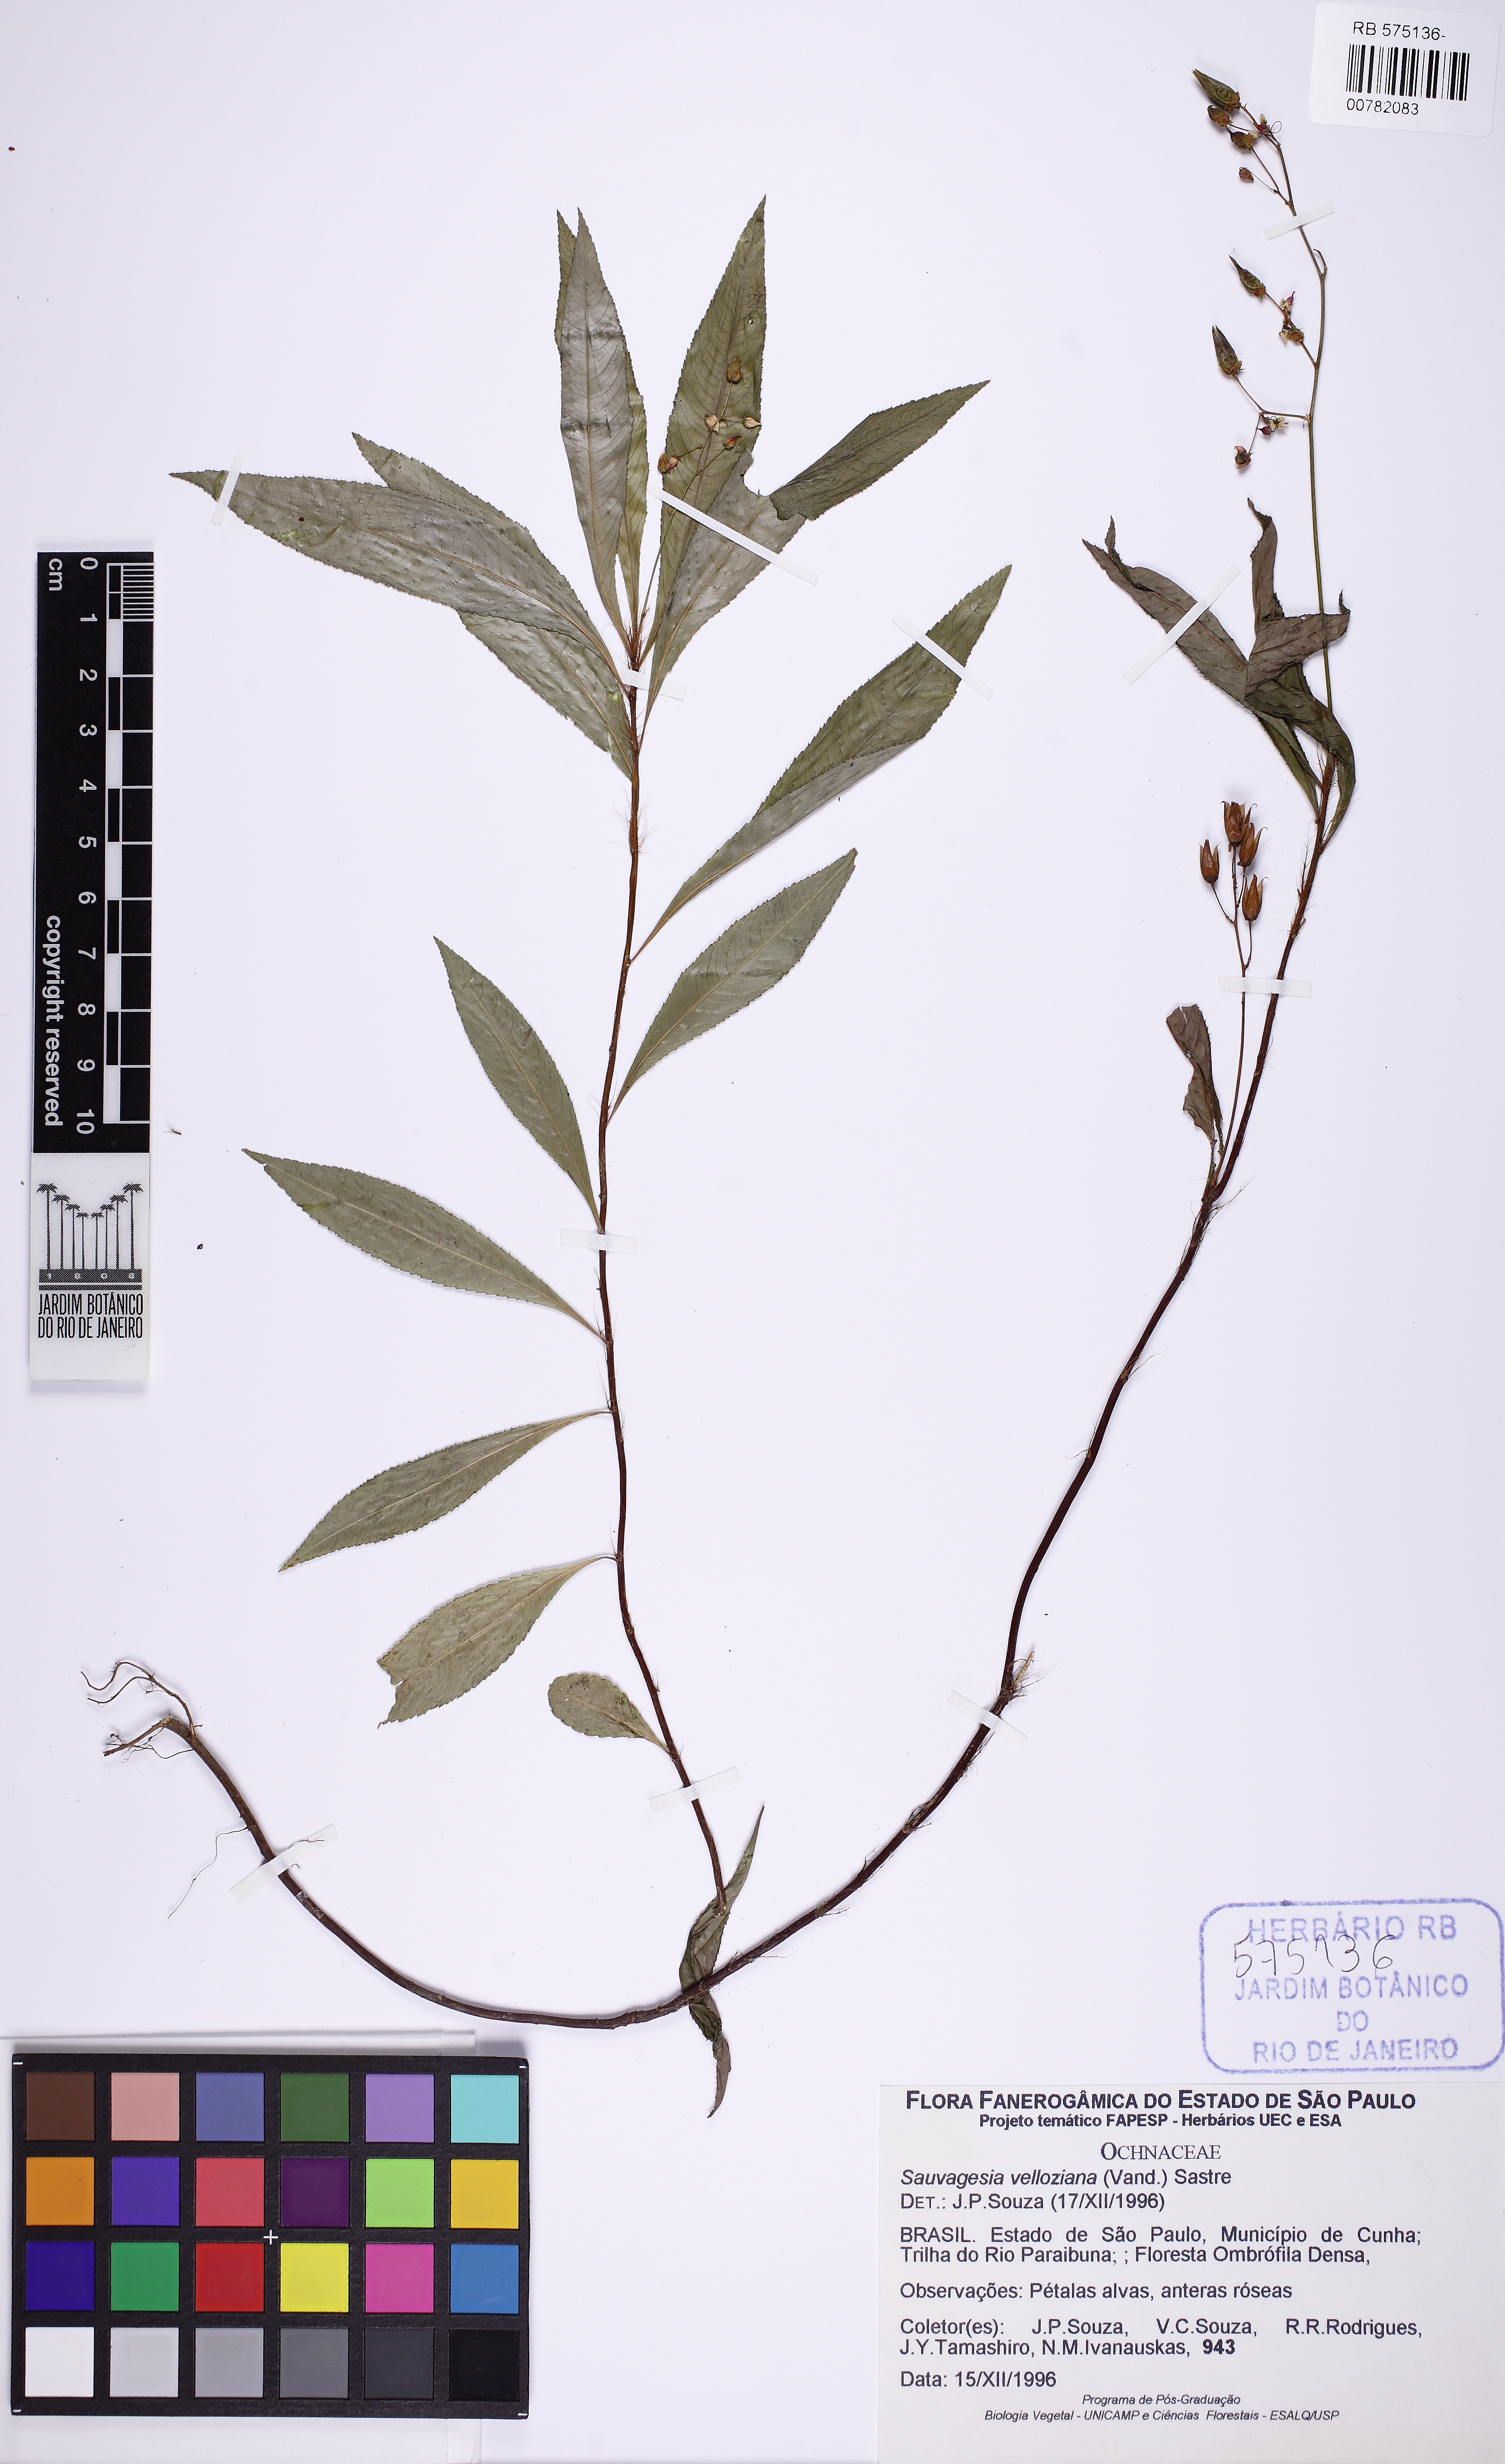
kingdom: Plantae
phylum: Tracheophyta
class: Magnoliopsida
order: Malpighiales
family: Ochnaceae
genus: Sauvagesia
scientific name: Sauvagesia vellozii
